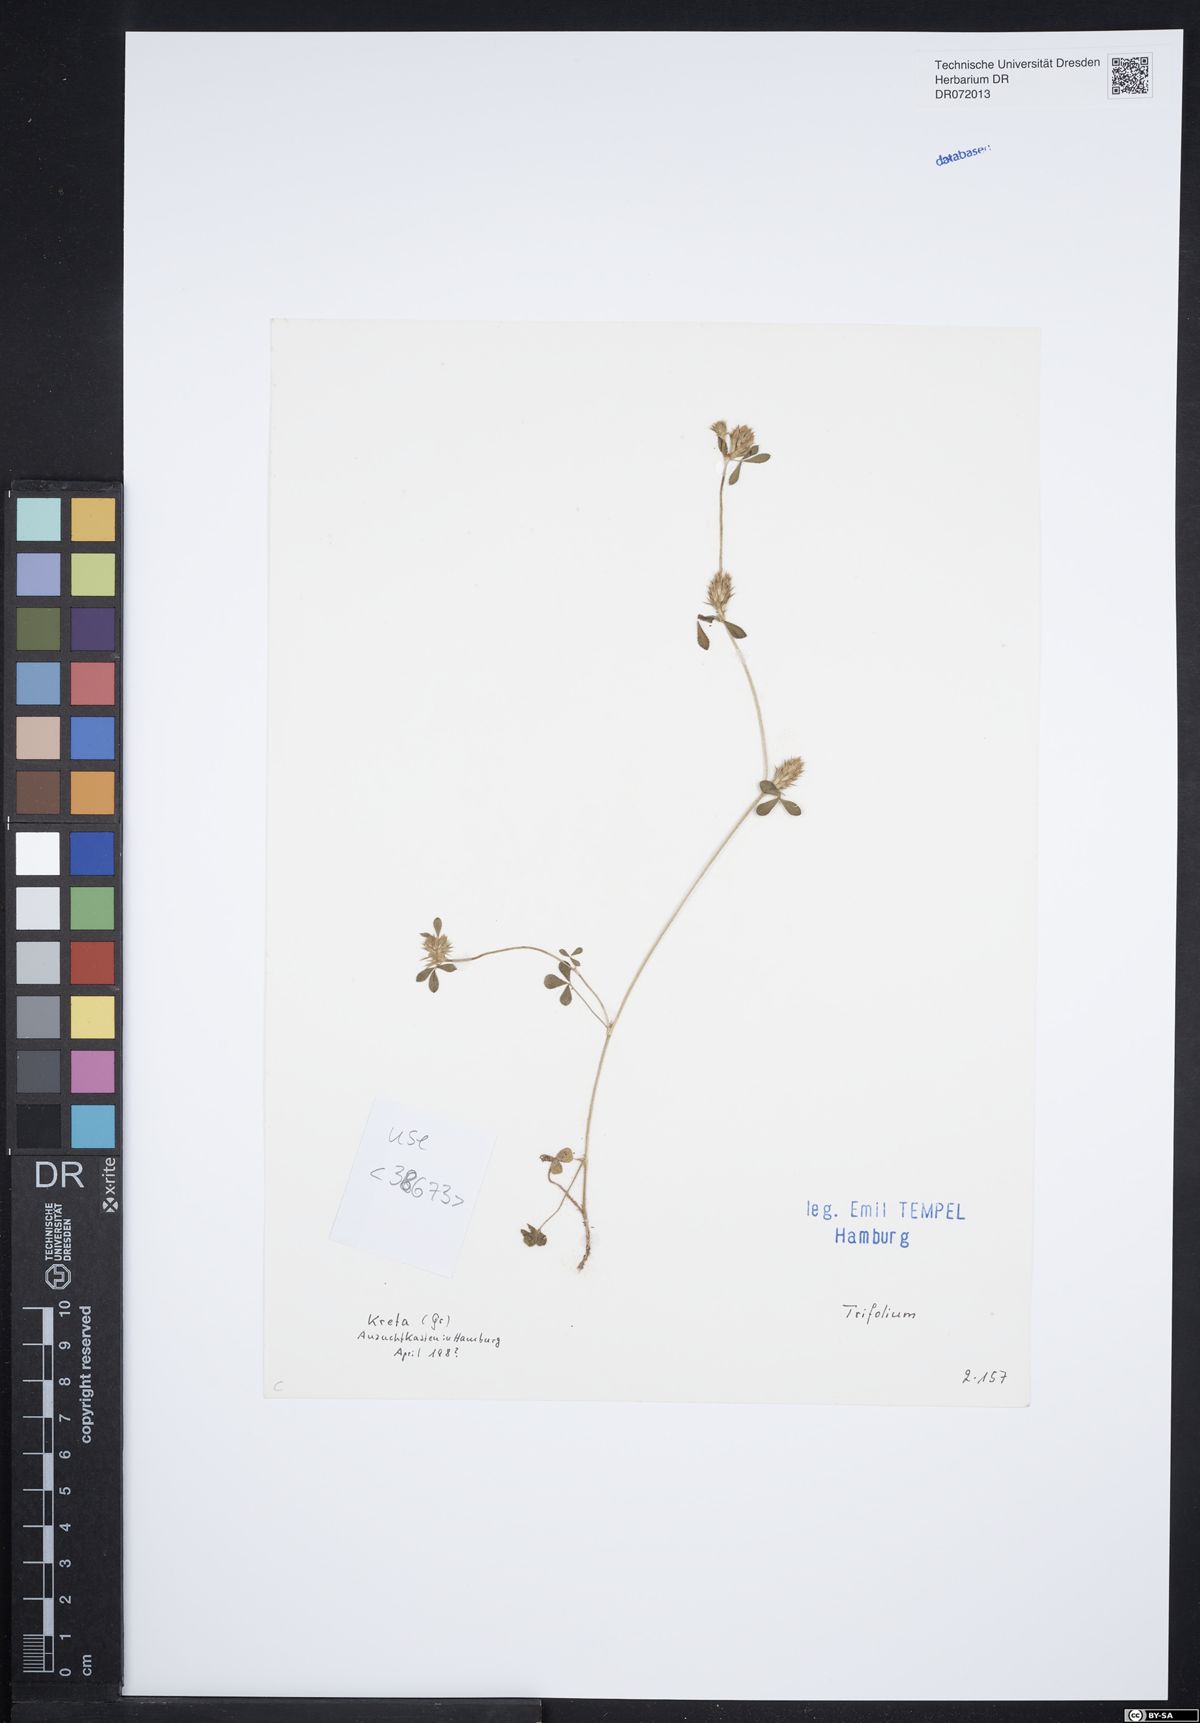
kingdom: Plantae
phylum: Tracheophyta
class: Magnoliopsida
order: Fabales
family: Fabaceae
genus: Trifolium
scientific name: Trifolium
